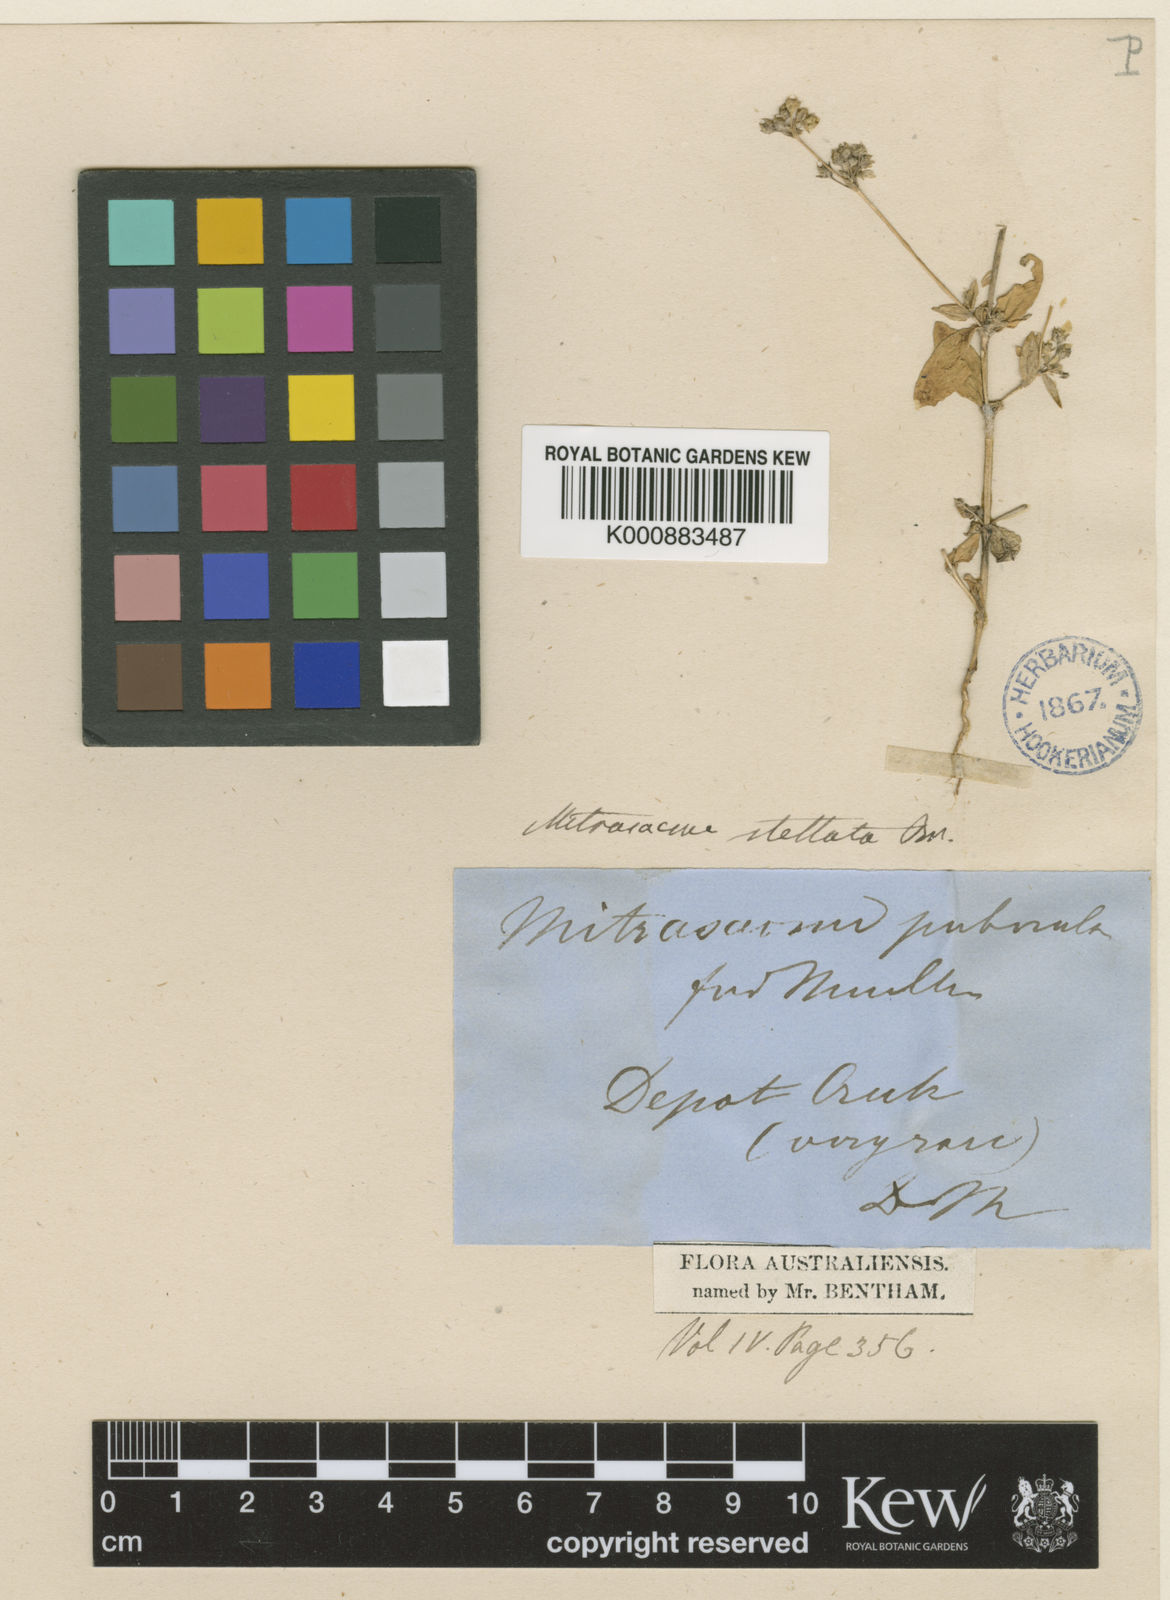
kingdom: Plantae
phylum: Tracheophyta
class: Magnoliopsida
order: Gentianales
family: Loganiaceae
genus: Mitrasacme
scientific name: Mitrasacme stellata
